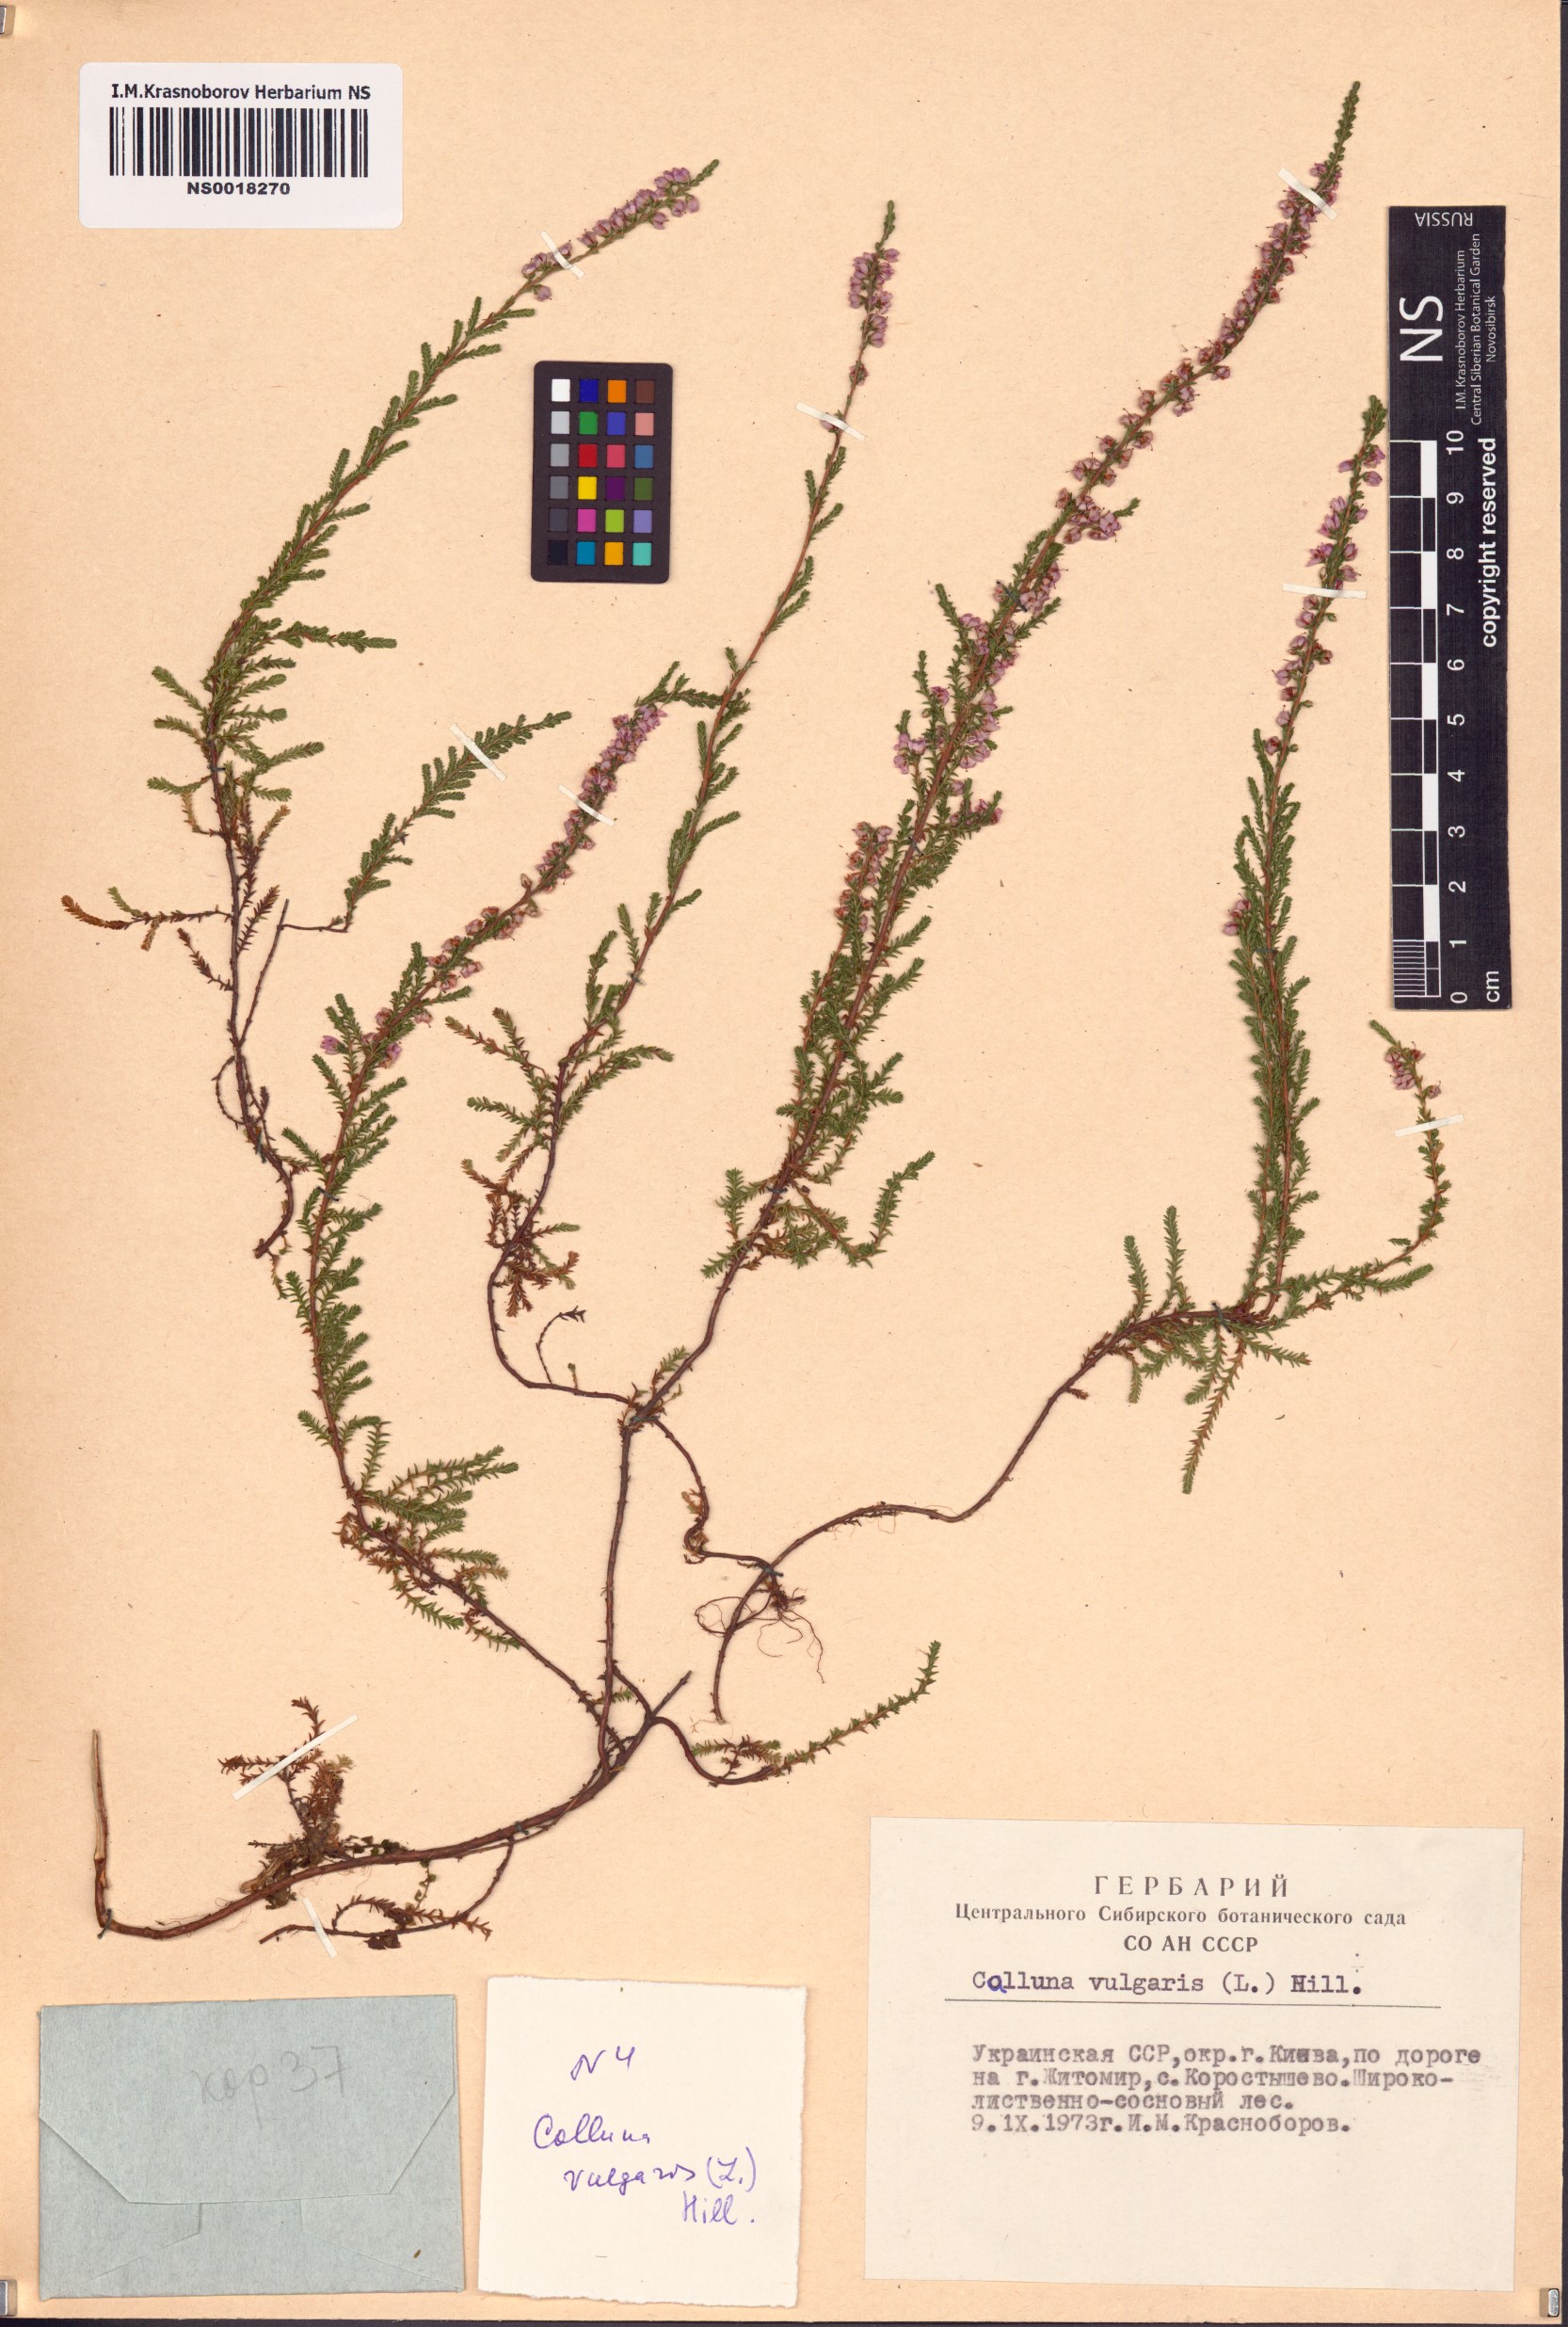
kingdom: Plantae
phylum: Tracheophyta
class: Magnoliopsida
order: Ericales
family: Ericaceae
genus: Calluna
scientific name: Calluna vulgaris
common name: Heather
